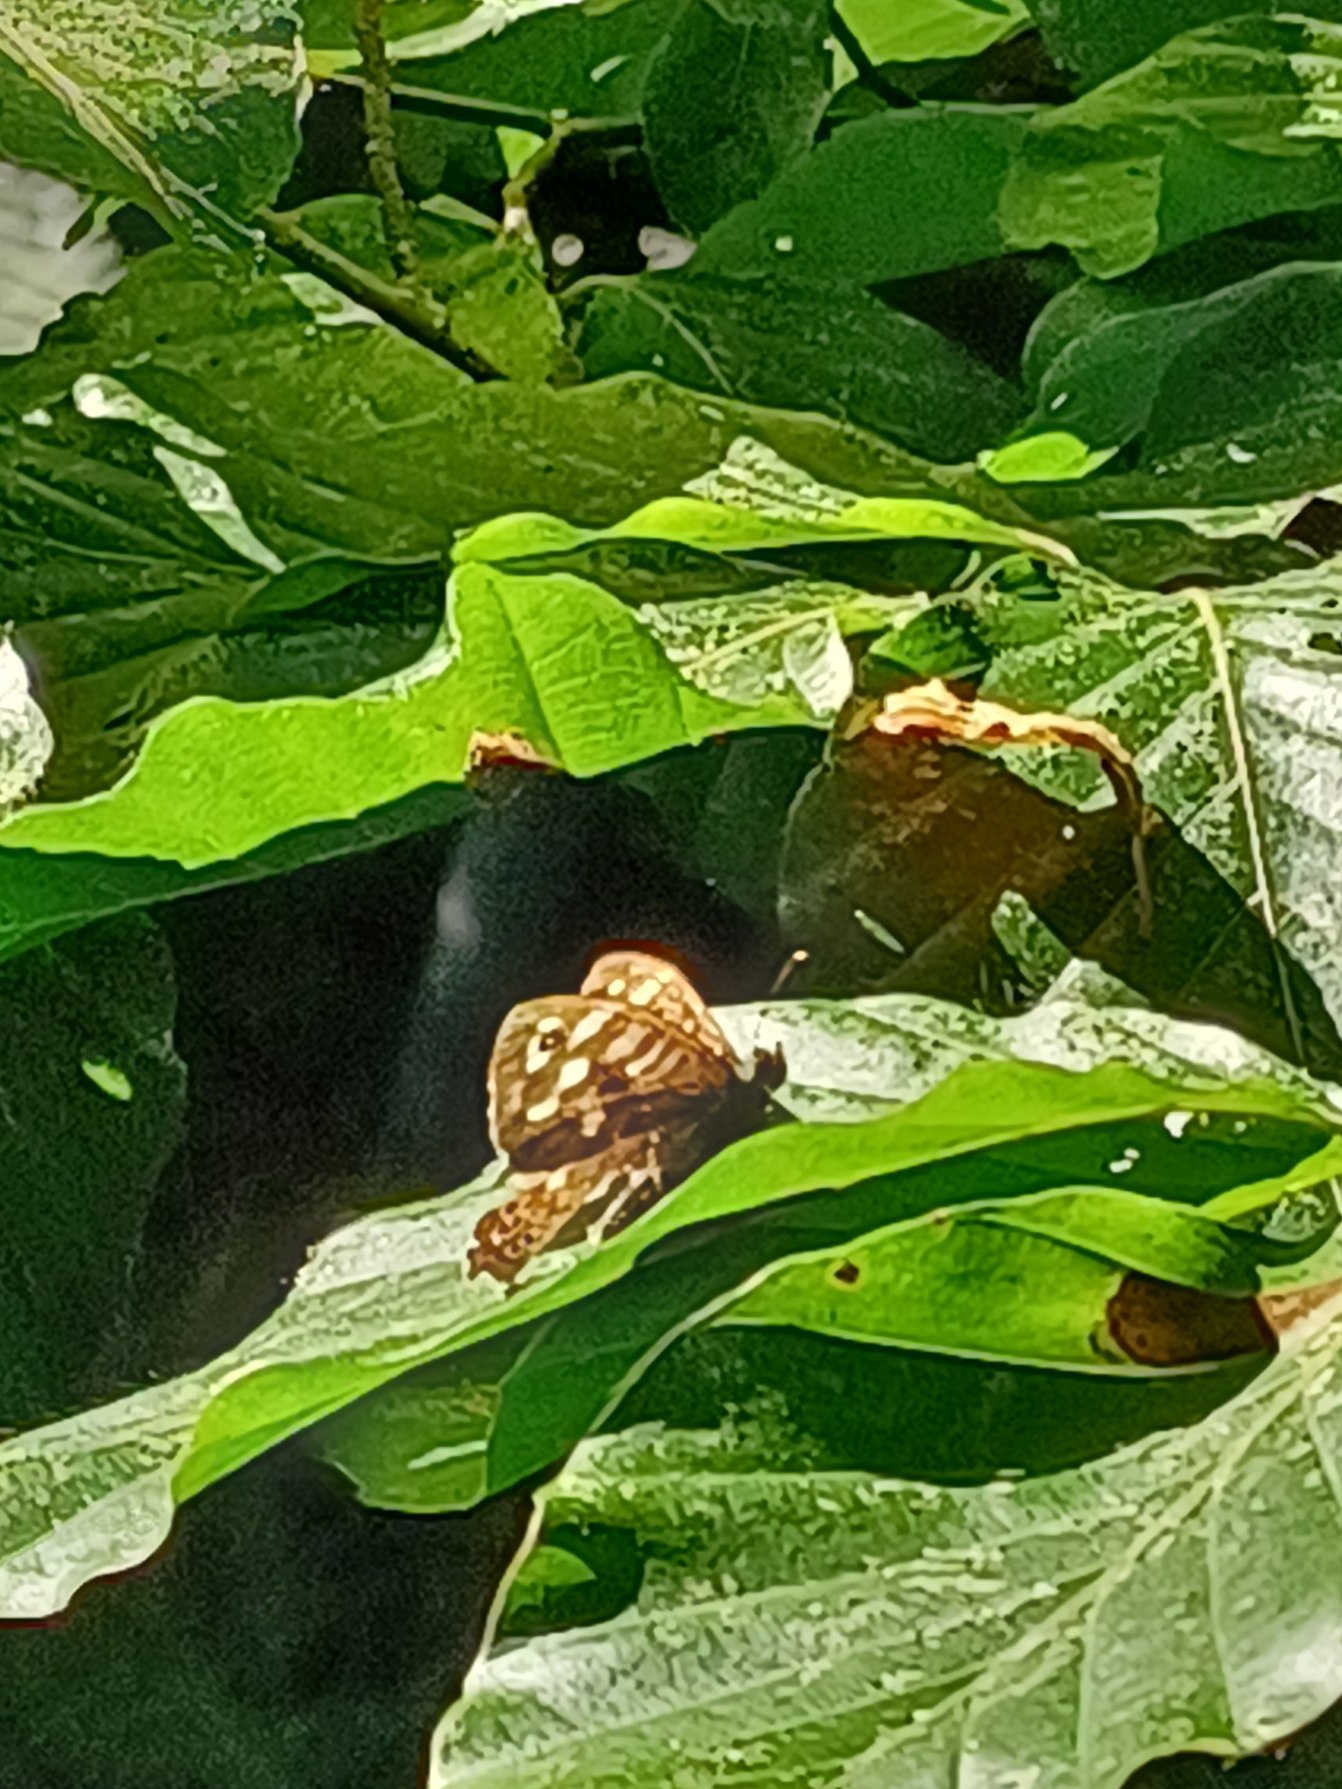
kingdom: Animalia
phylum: Arthropoda
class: Insecta
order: Lepidoptera
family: Nymphalidae
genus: Pararge
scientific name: Pararge aegeria
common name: Skovrandøje
